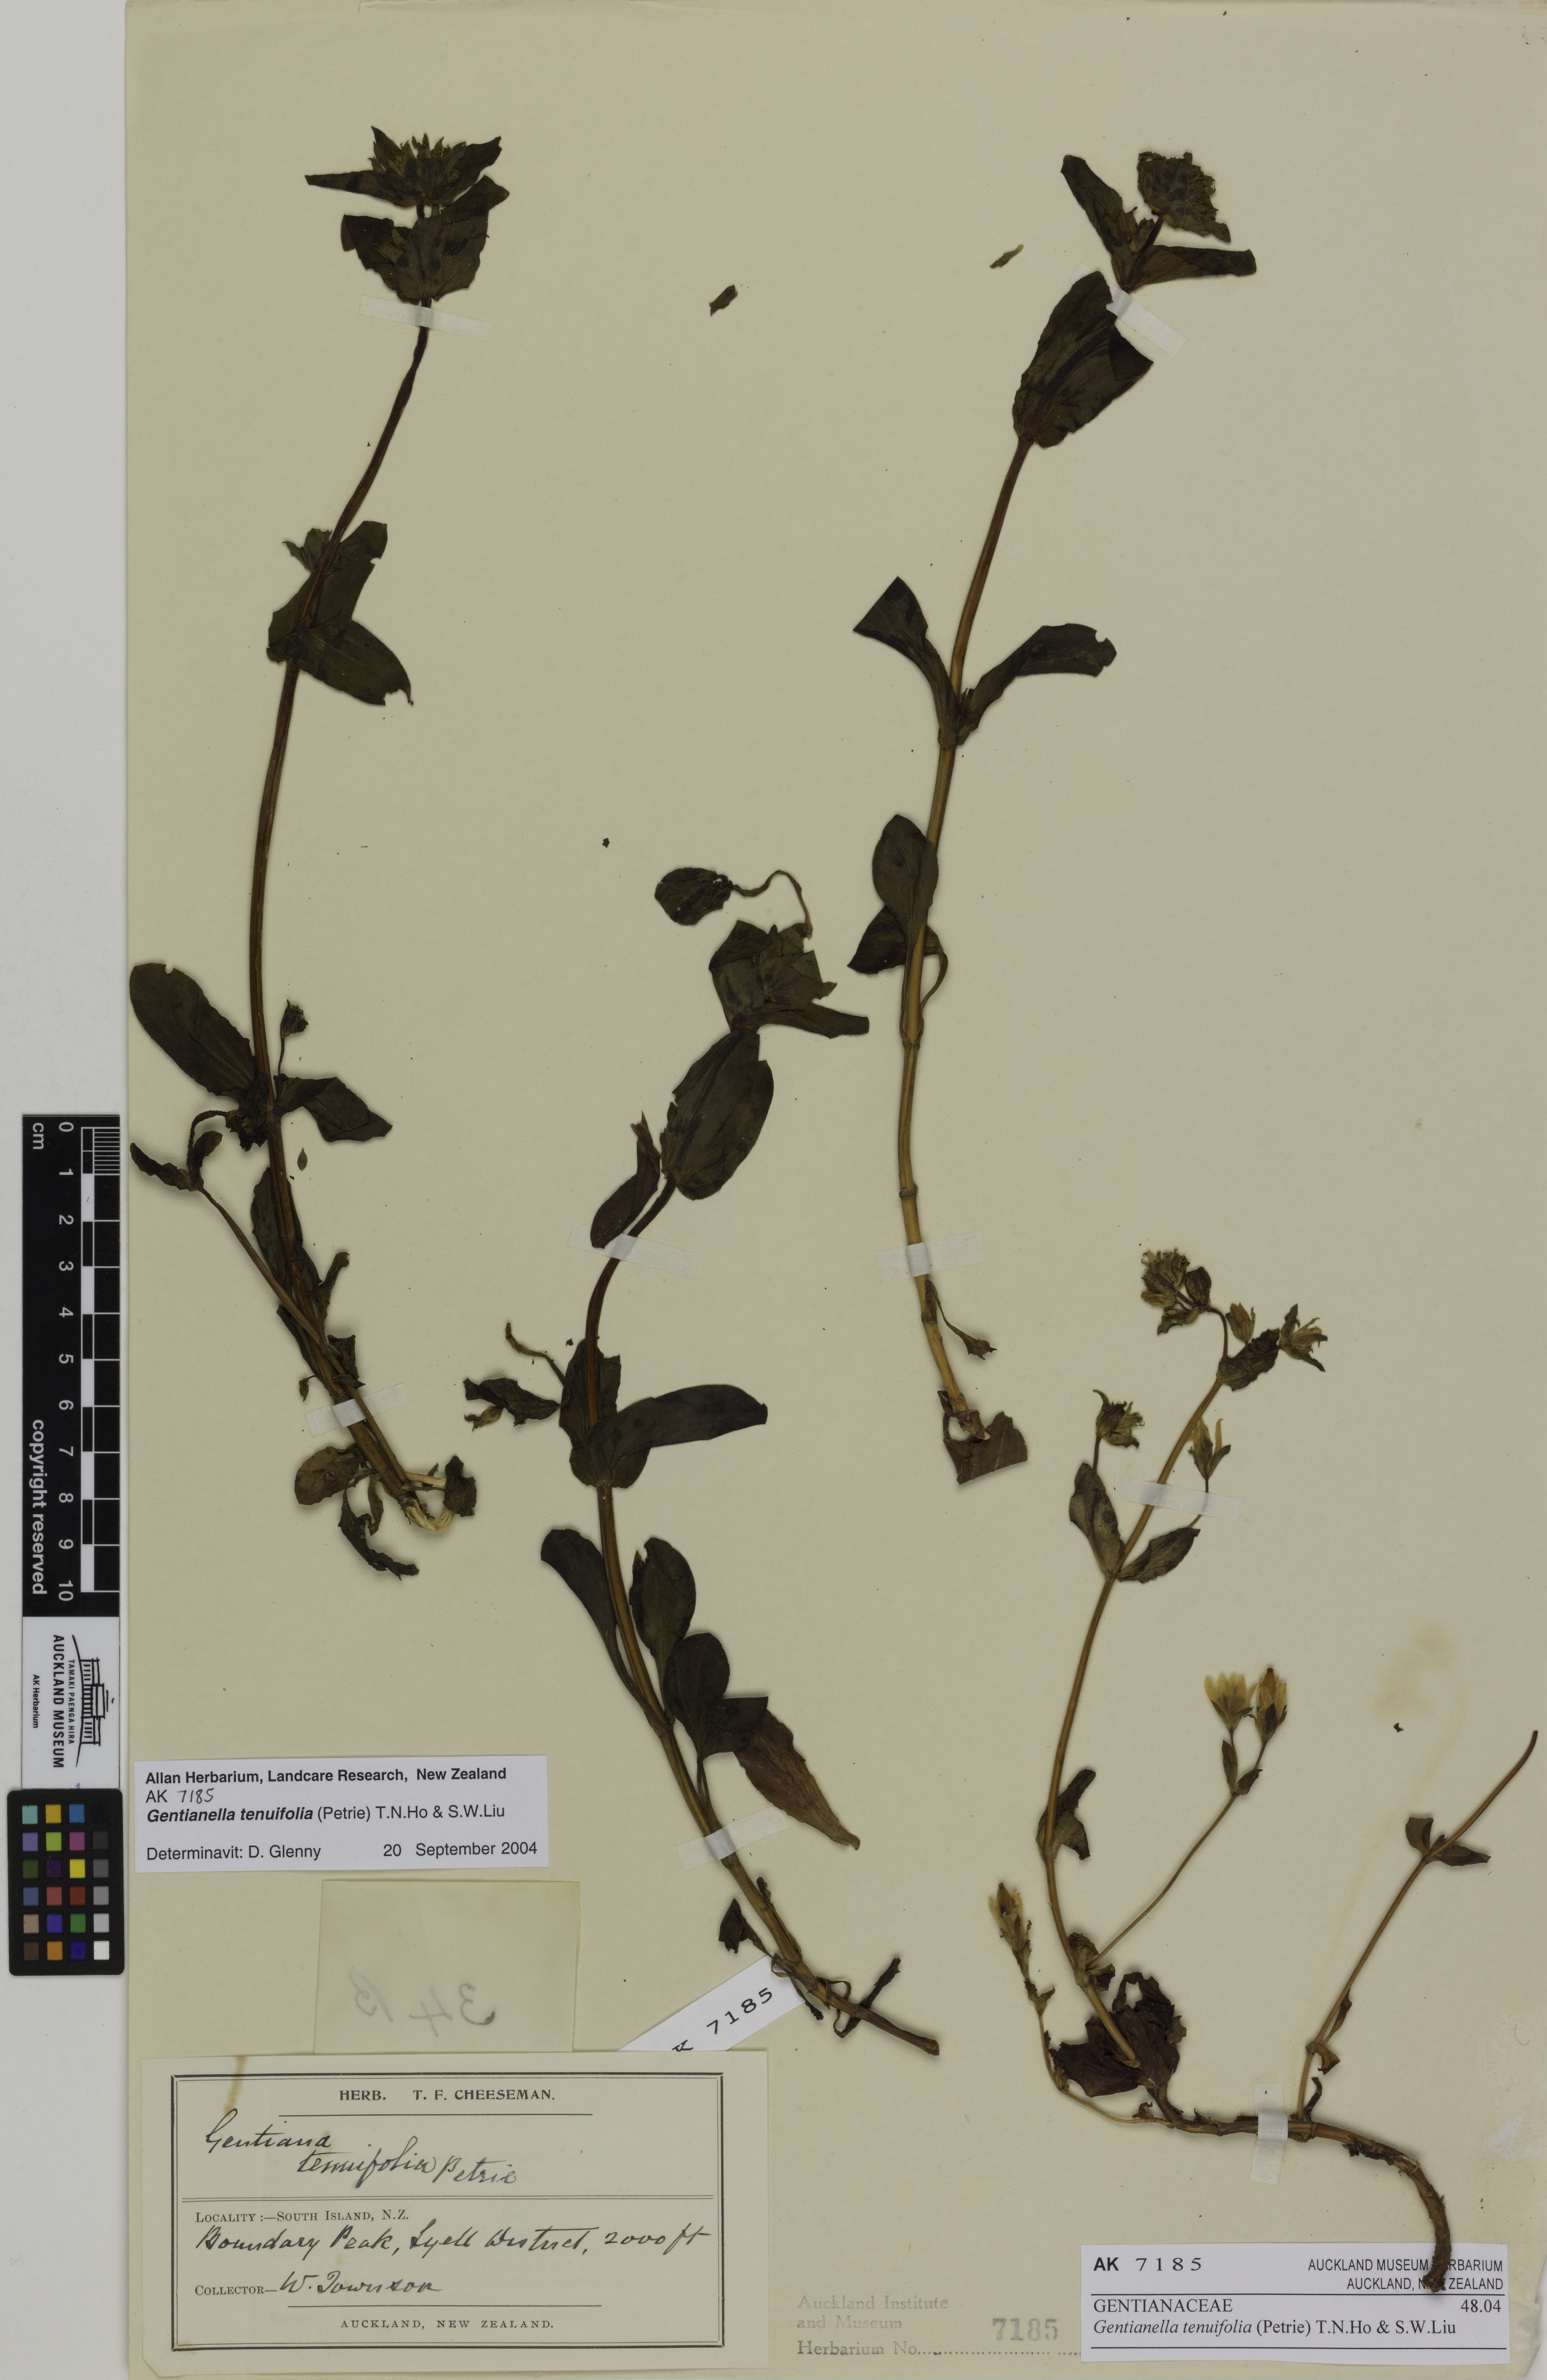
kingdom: Plantae
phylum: Tracheophyta
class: Magnoliopsida
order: Gentianales
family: Gentianaceae
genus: Gentianella
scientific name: Gentianella tenuifolia
